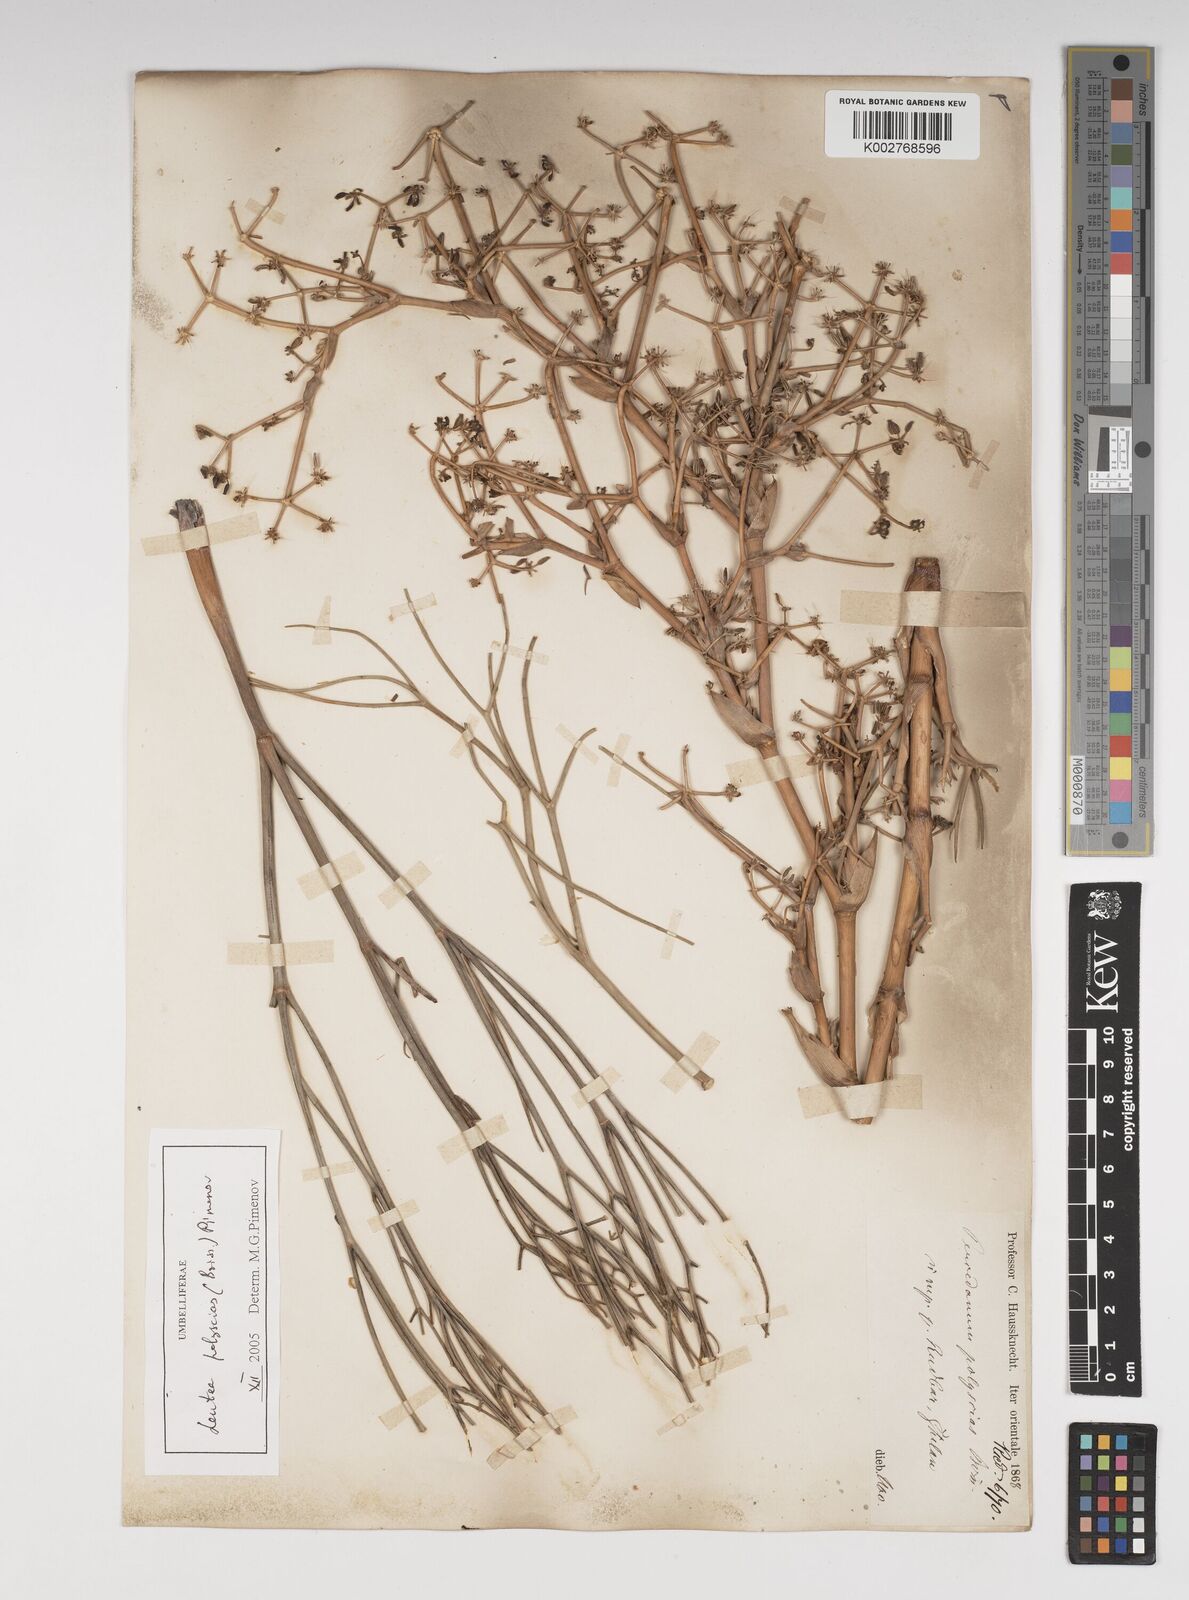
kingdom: Plantae
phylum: Tracheophyta
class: Magnoliopsida
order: Apiales
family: Apiaceae
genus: Leutea
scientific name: Leutea polyscias
